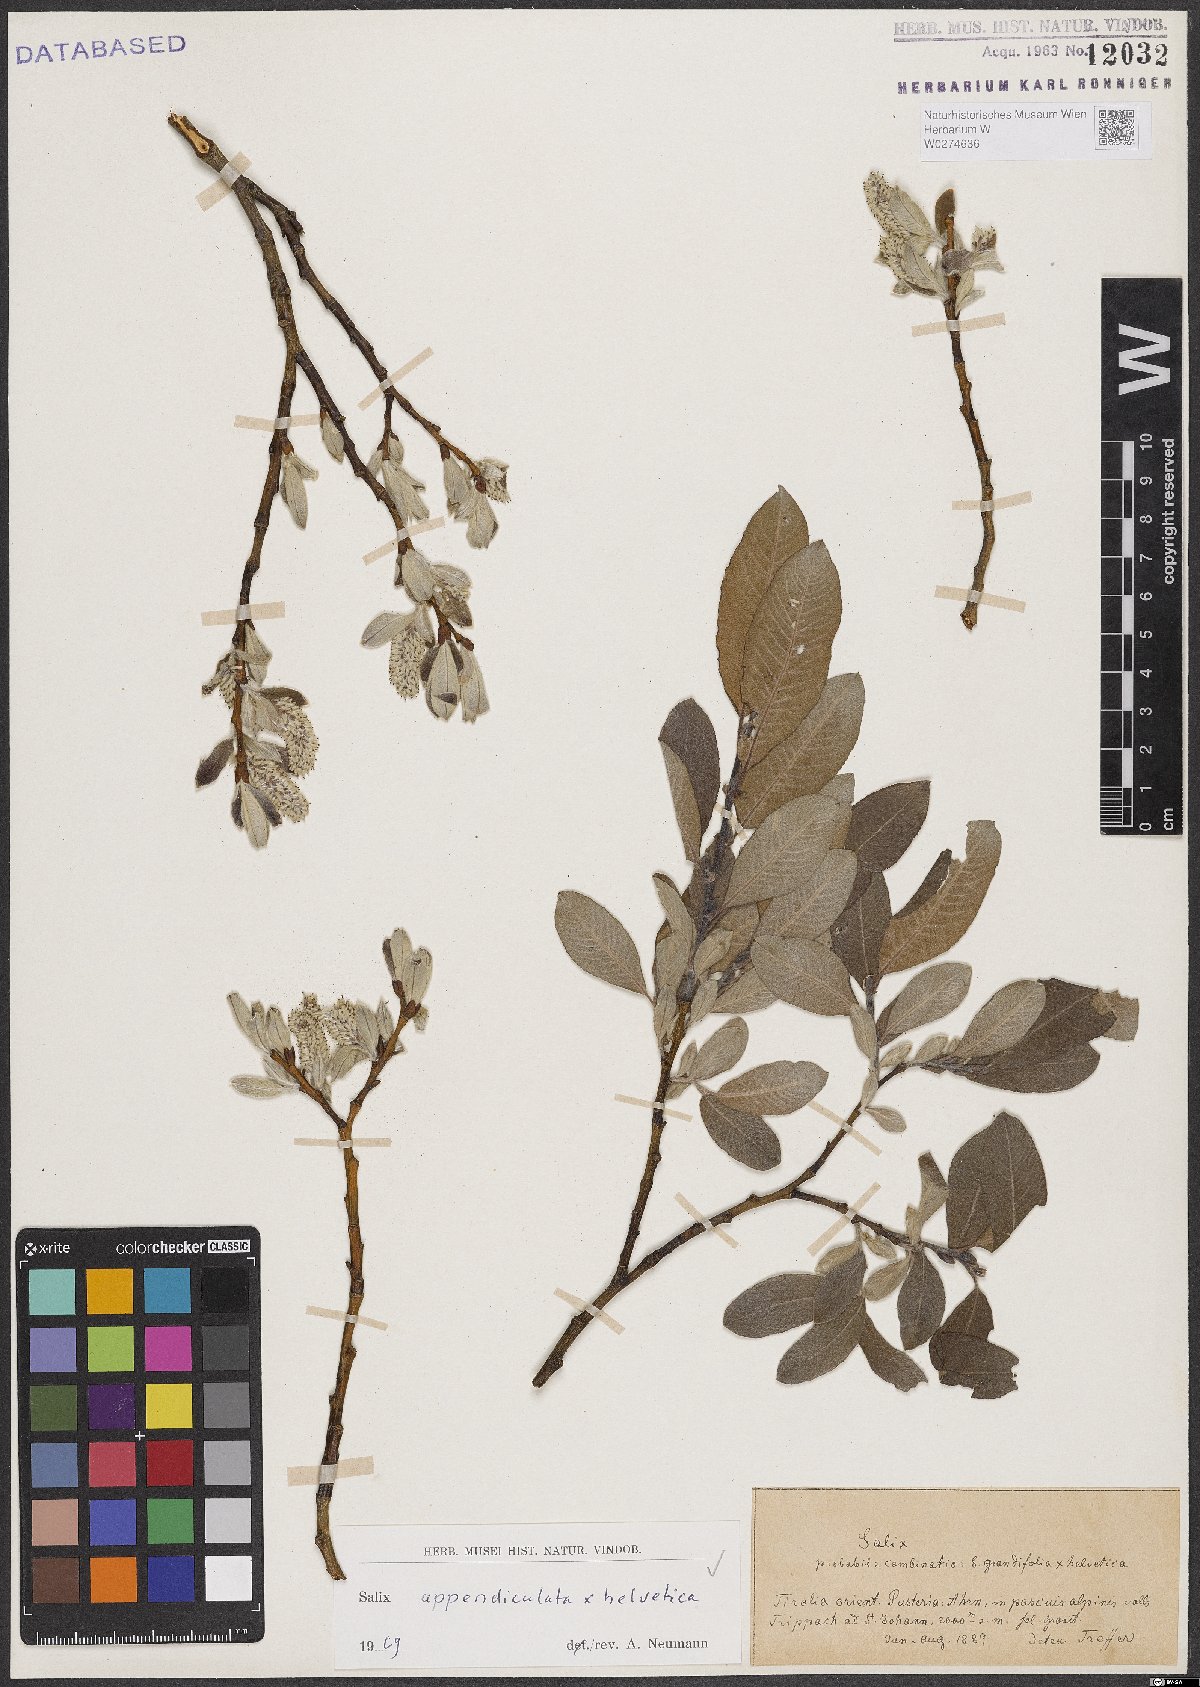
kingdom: Plantae
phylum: Tracheophyta
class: Magnoliopsida
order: Malpighiales
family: Salicaceae
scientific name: Salicaceae
